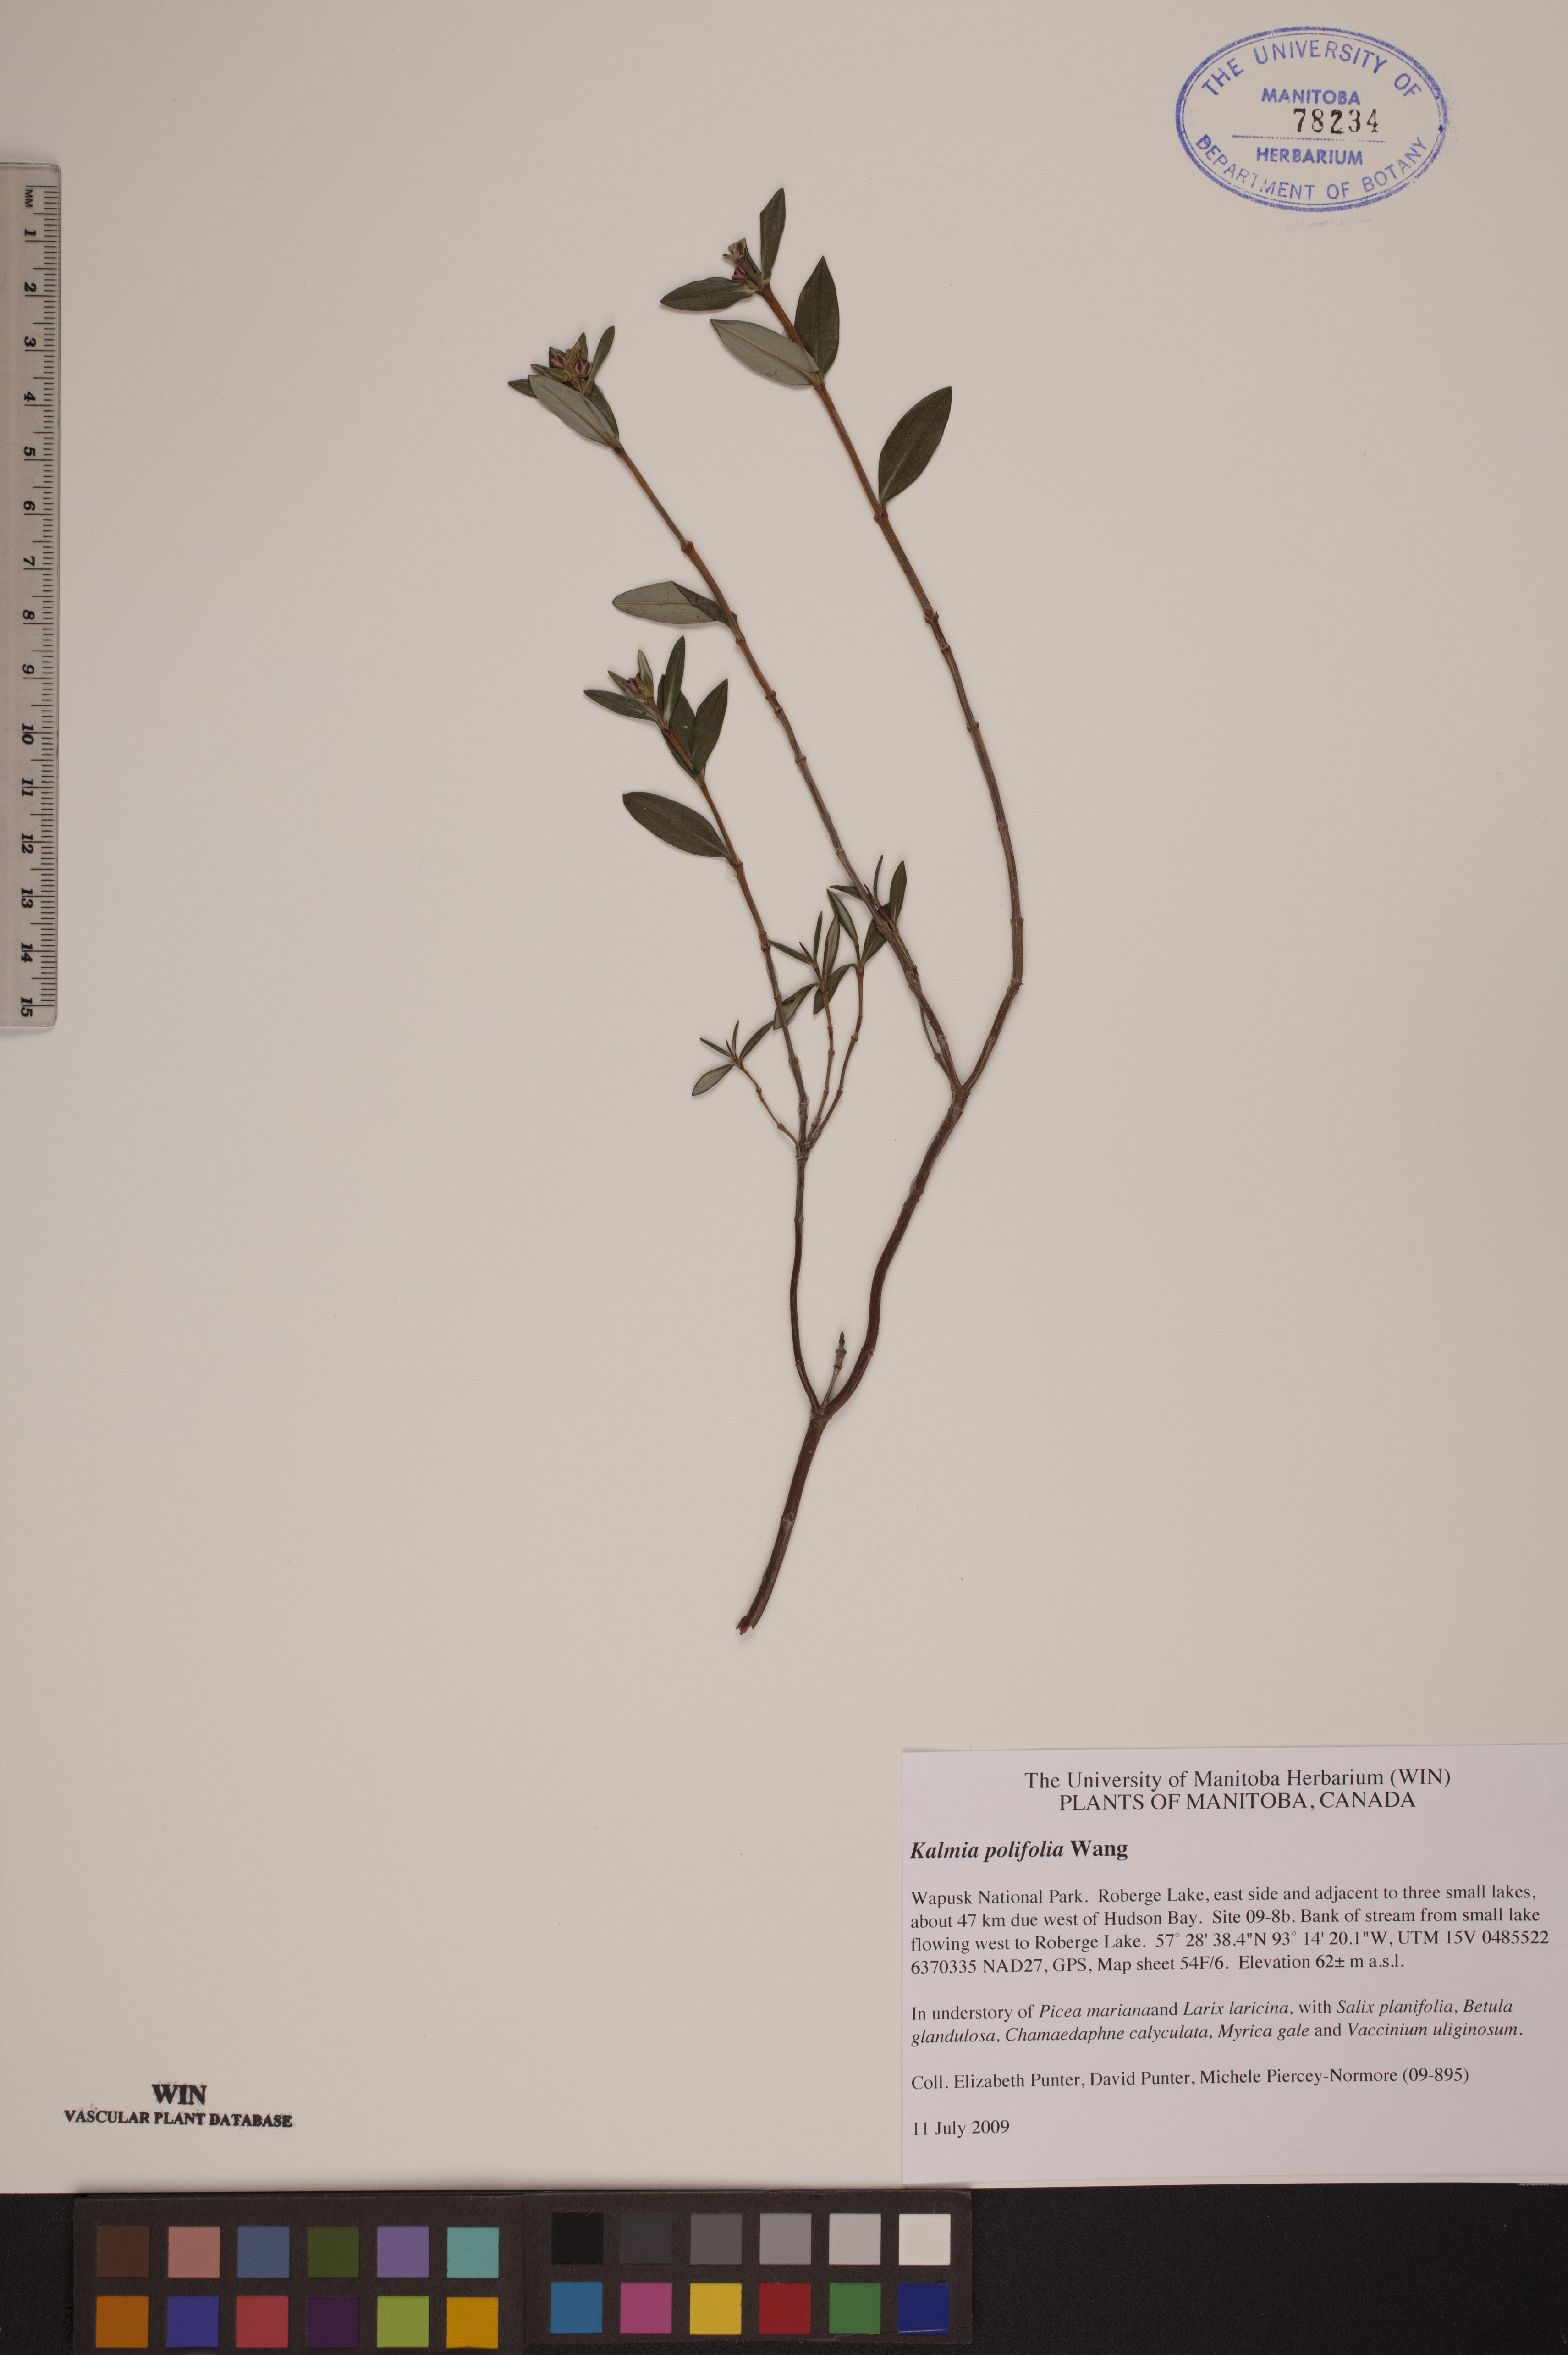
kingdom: Plantae
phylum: Tracheophyta
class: Magnoliopsida
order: Ericales
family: Ericaceae
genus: Kalmia
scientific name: Kalmia polifolia
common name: Bog-laurel
